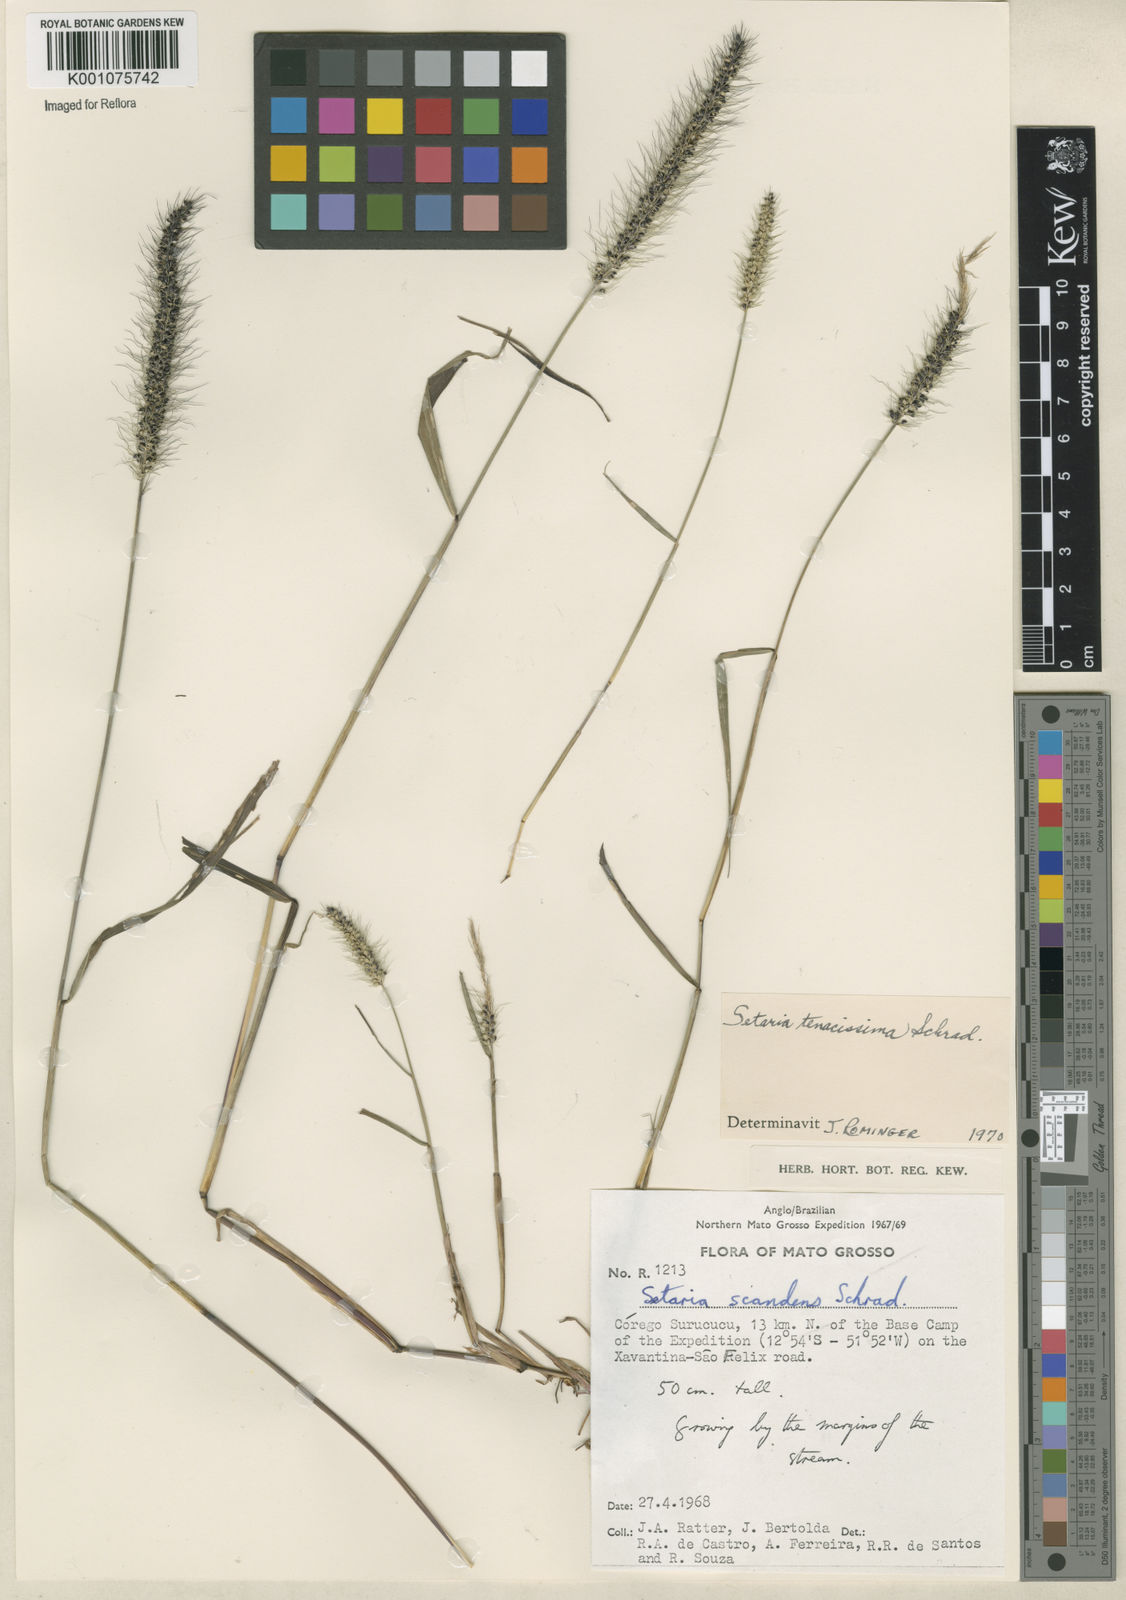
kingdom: Plantae
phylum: Tracheophyta
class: Liliopsida
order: Poales
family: Poaceae
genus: Setaria
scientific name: Setaria tenacissima
